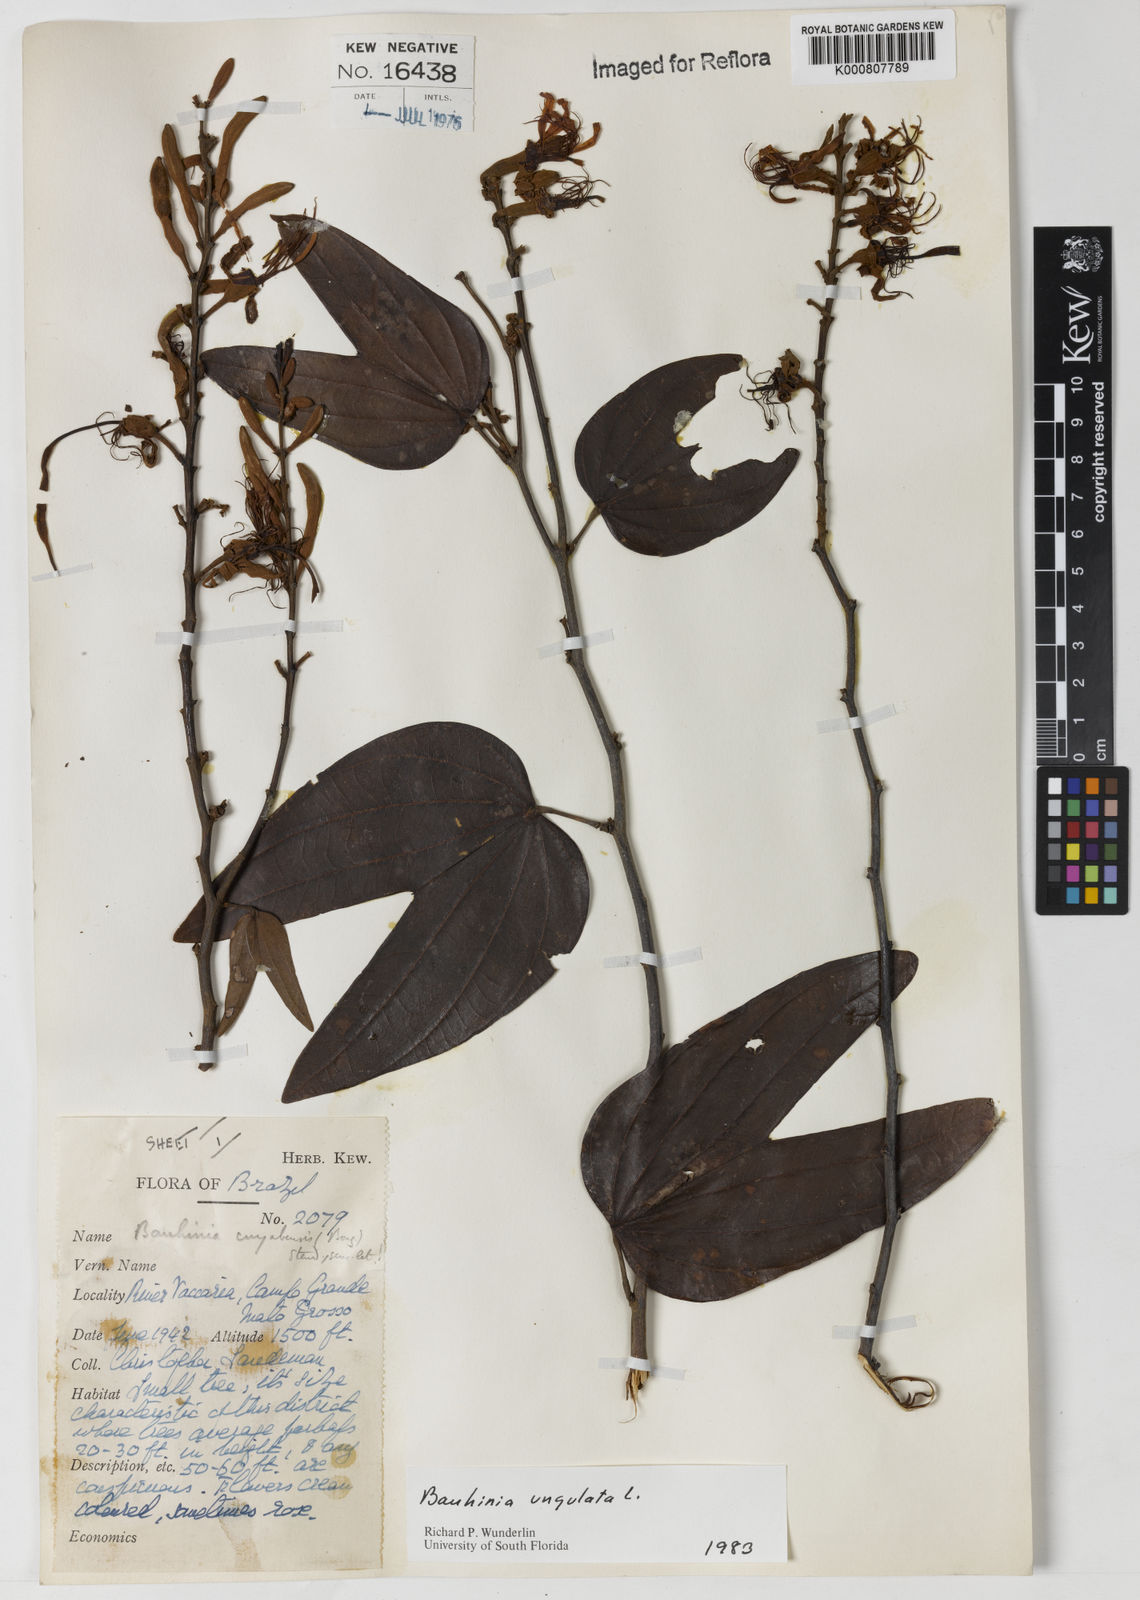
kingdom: Plantae
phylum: Tracheophyta
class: Magnoliopsida
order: Fabales
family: Fabaceae
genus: Bauhinia
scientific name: Bauhinia ungulata
